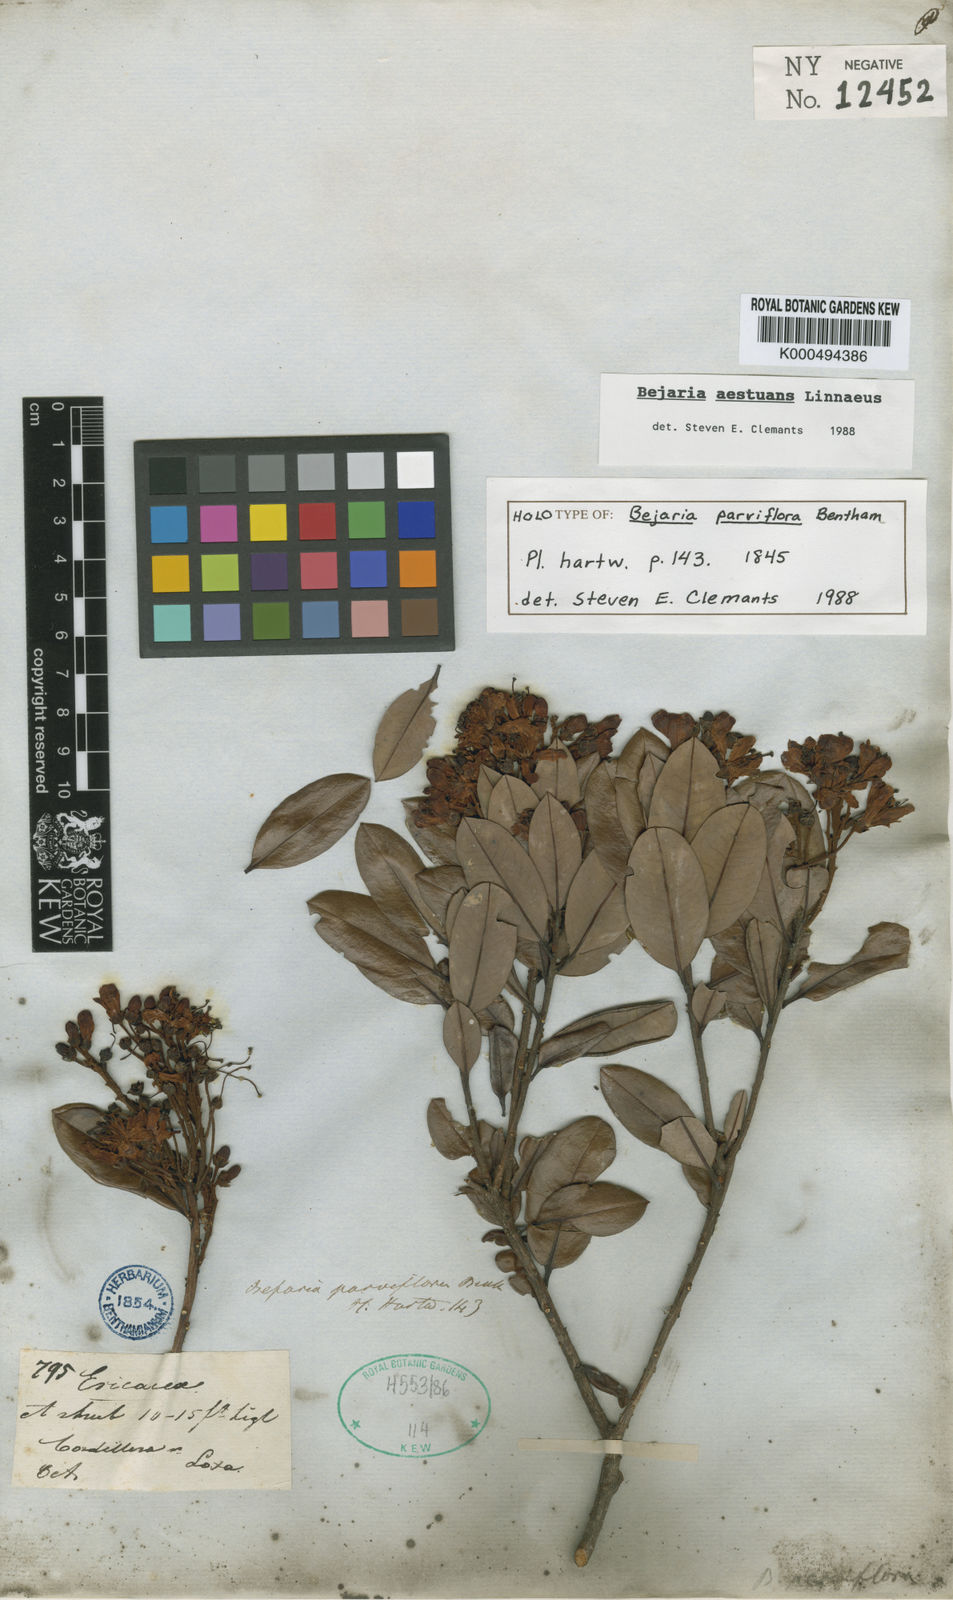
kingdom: Plantae
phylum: Tracheophyta
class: Magnoliopsida
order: Ericales
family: Ericaceae
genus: Bejaria
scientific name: Bejaria
